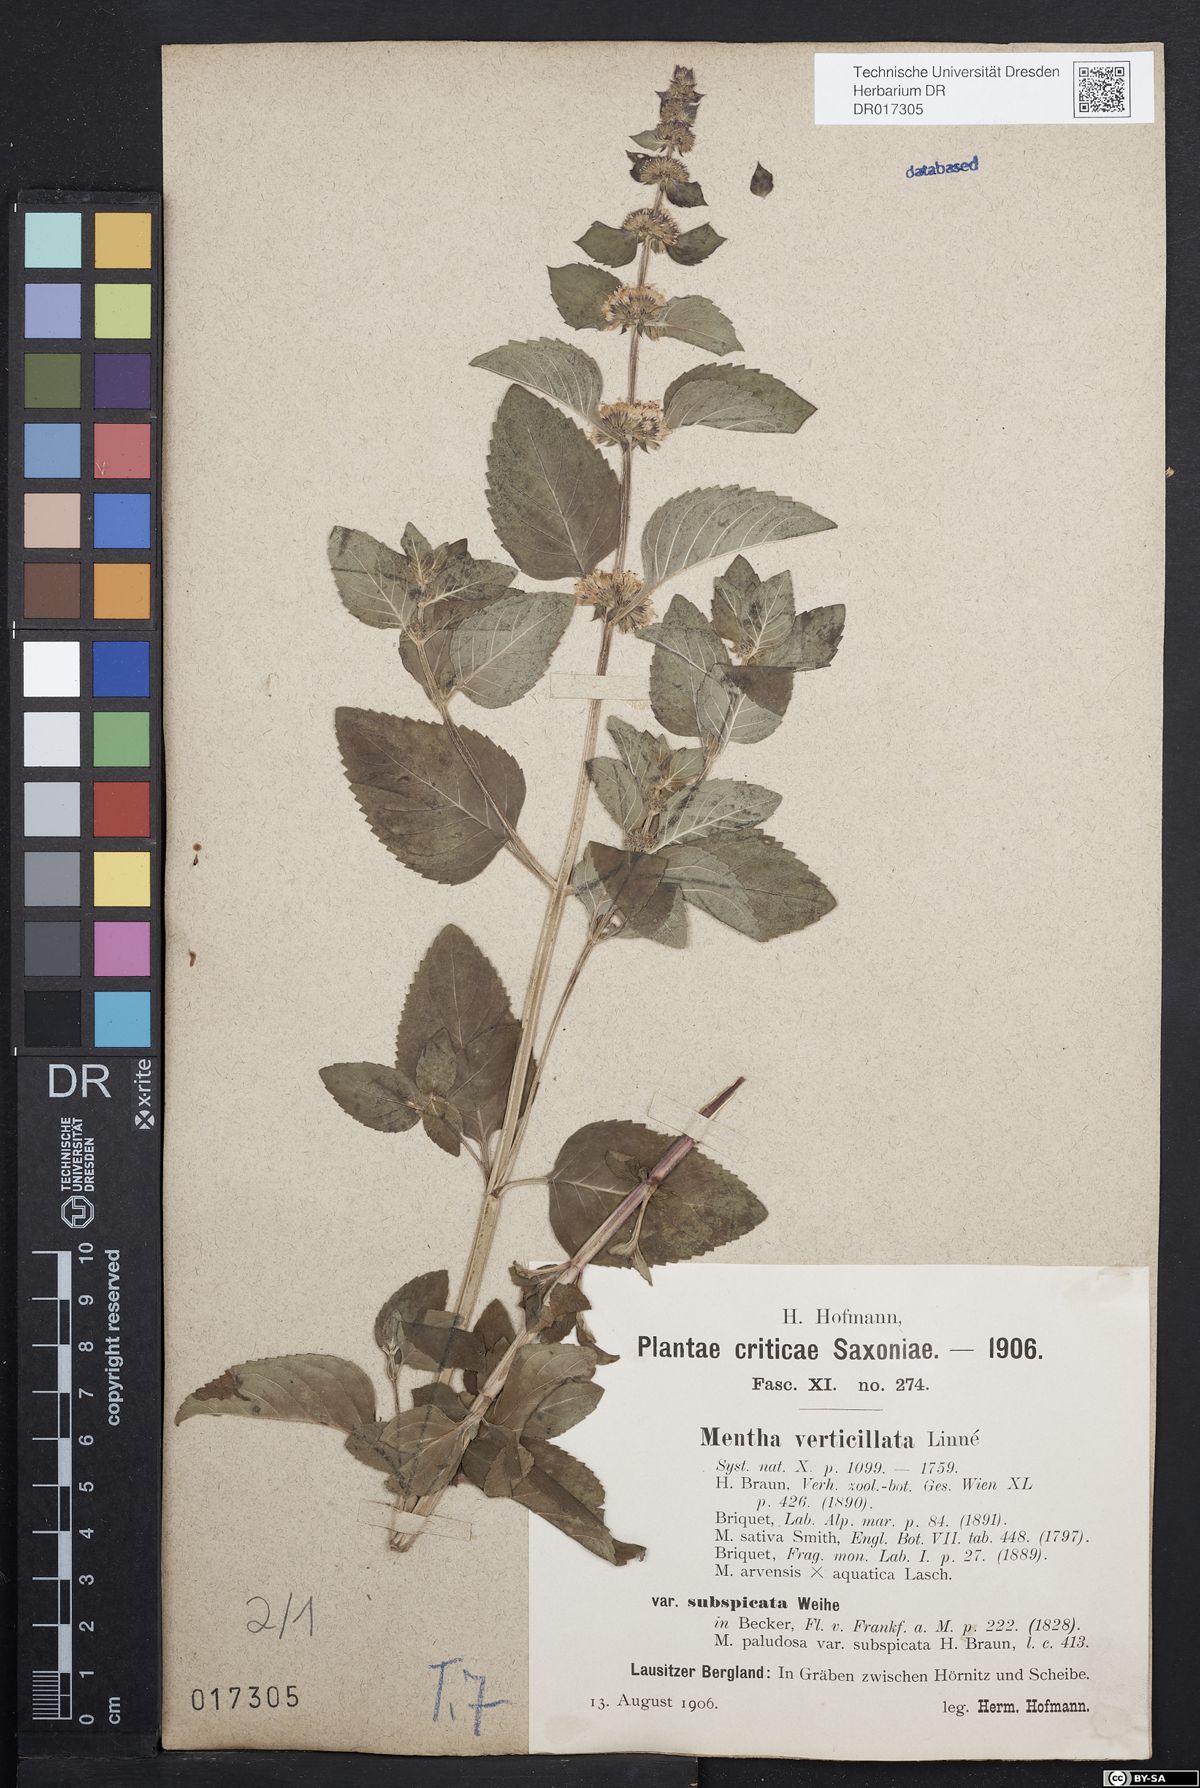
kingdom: Plantae
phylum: Tracheophyta
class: Magnoliopsida
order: Lamiales
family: Lamiaceae
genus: Mentha
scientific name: Mentha verticillata
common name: Mint
